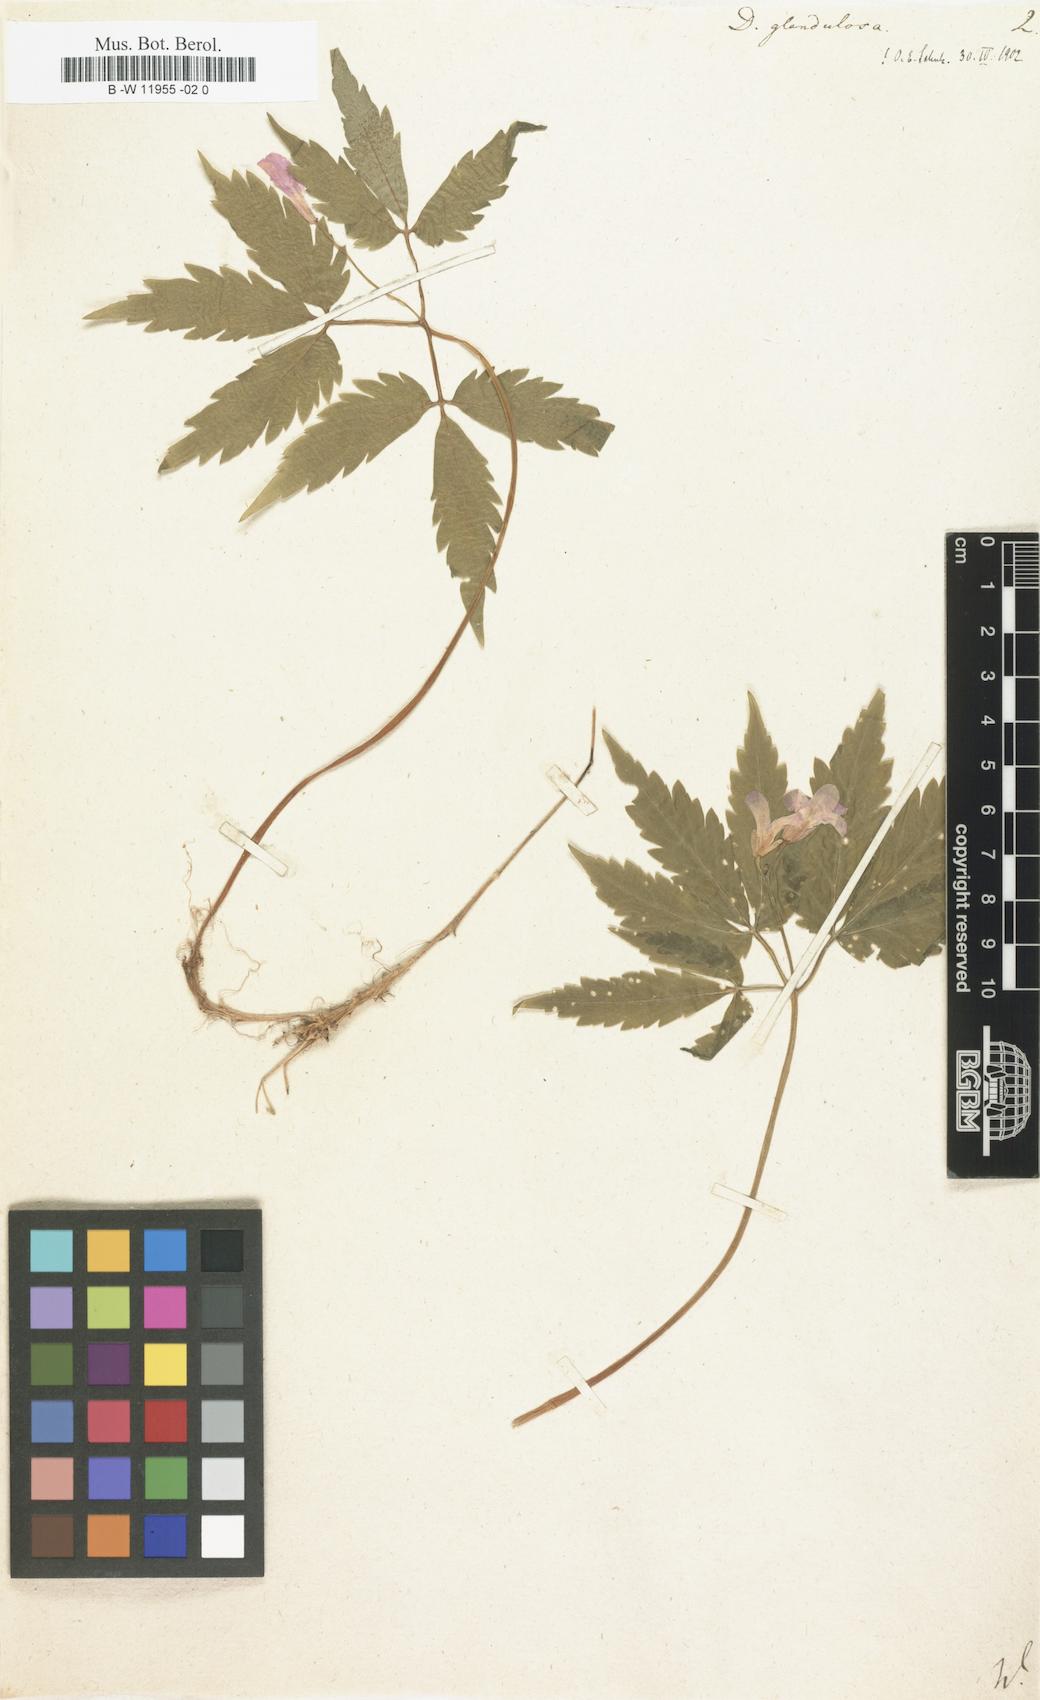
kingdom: Plantae
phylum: Tracheophyta
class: Magnoliopsida
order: Brassicales
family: Brassicaceae
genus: Cardamine
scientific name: Cardamine glanduligera
